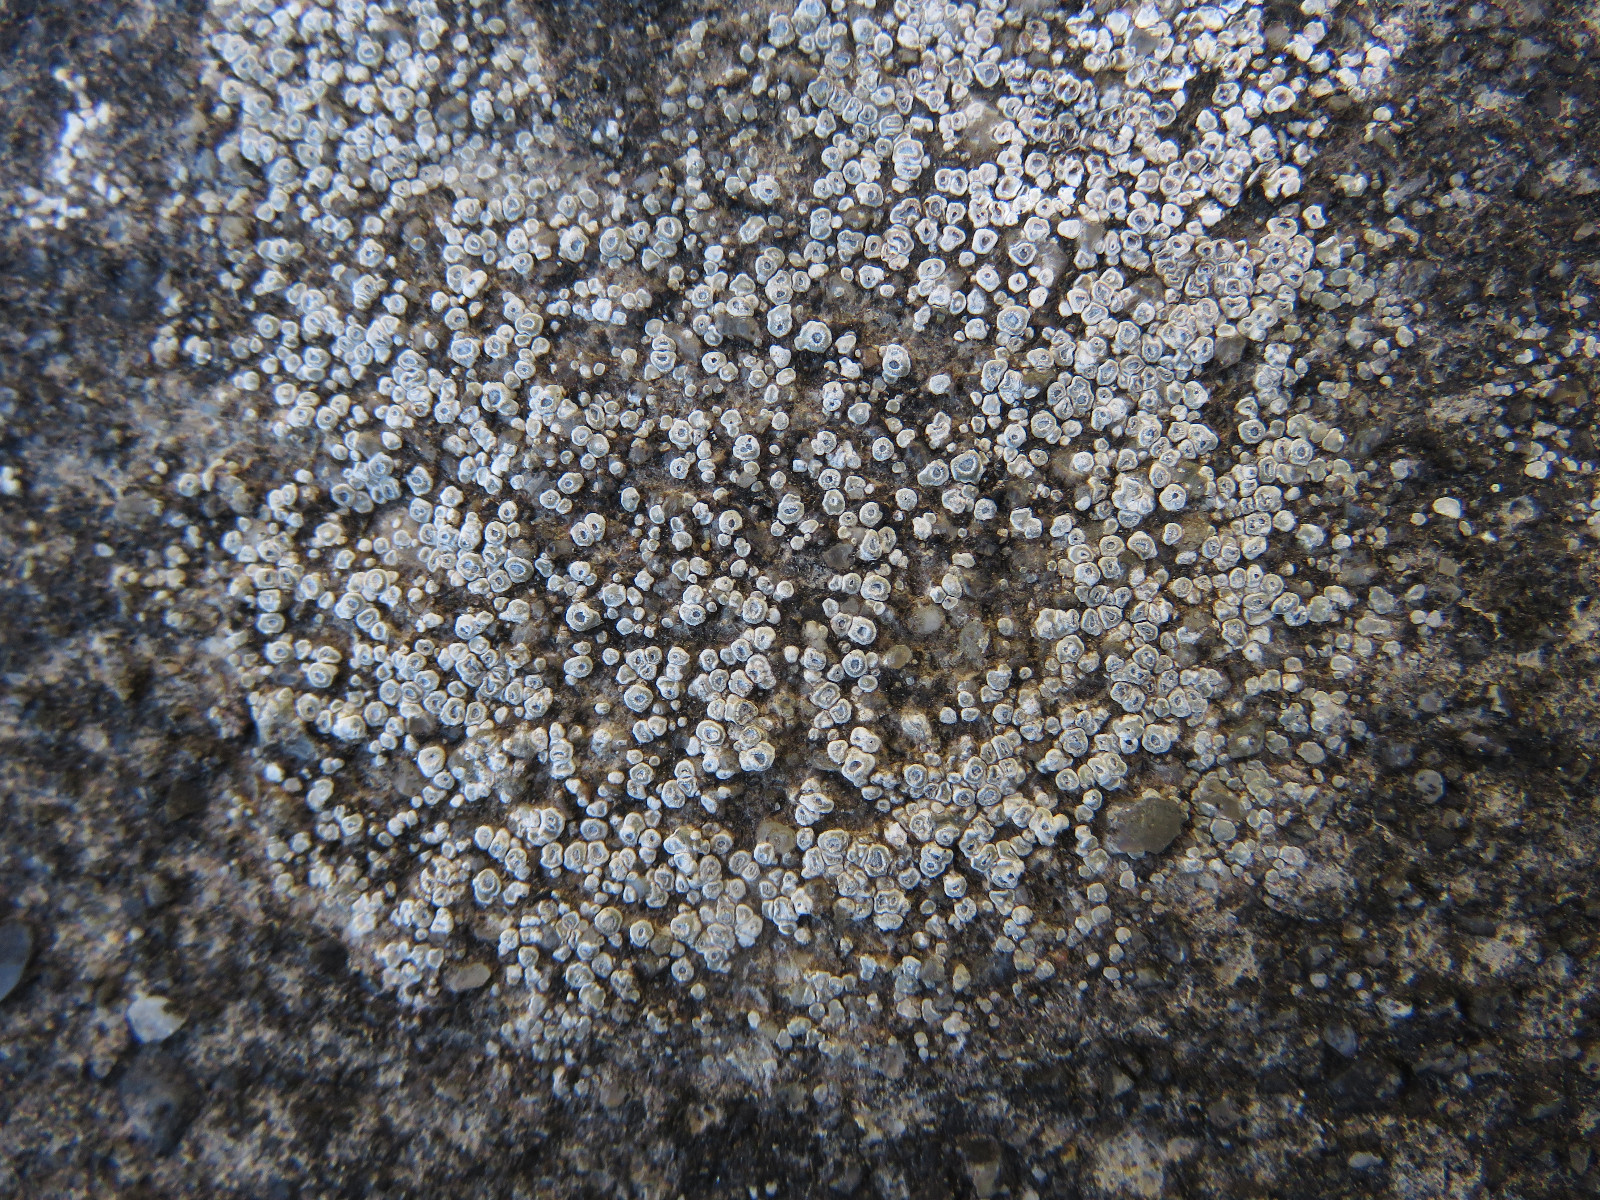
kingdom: Fungi
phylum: Ascomycota
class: Lecanoromycetes
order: Pertusariales
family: Megasporaceae
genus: Circinaria
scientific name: Circinaria contorta
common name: indviklet hulskivelav
